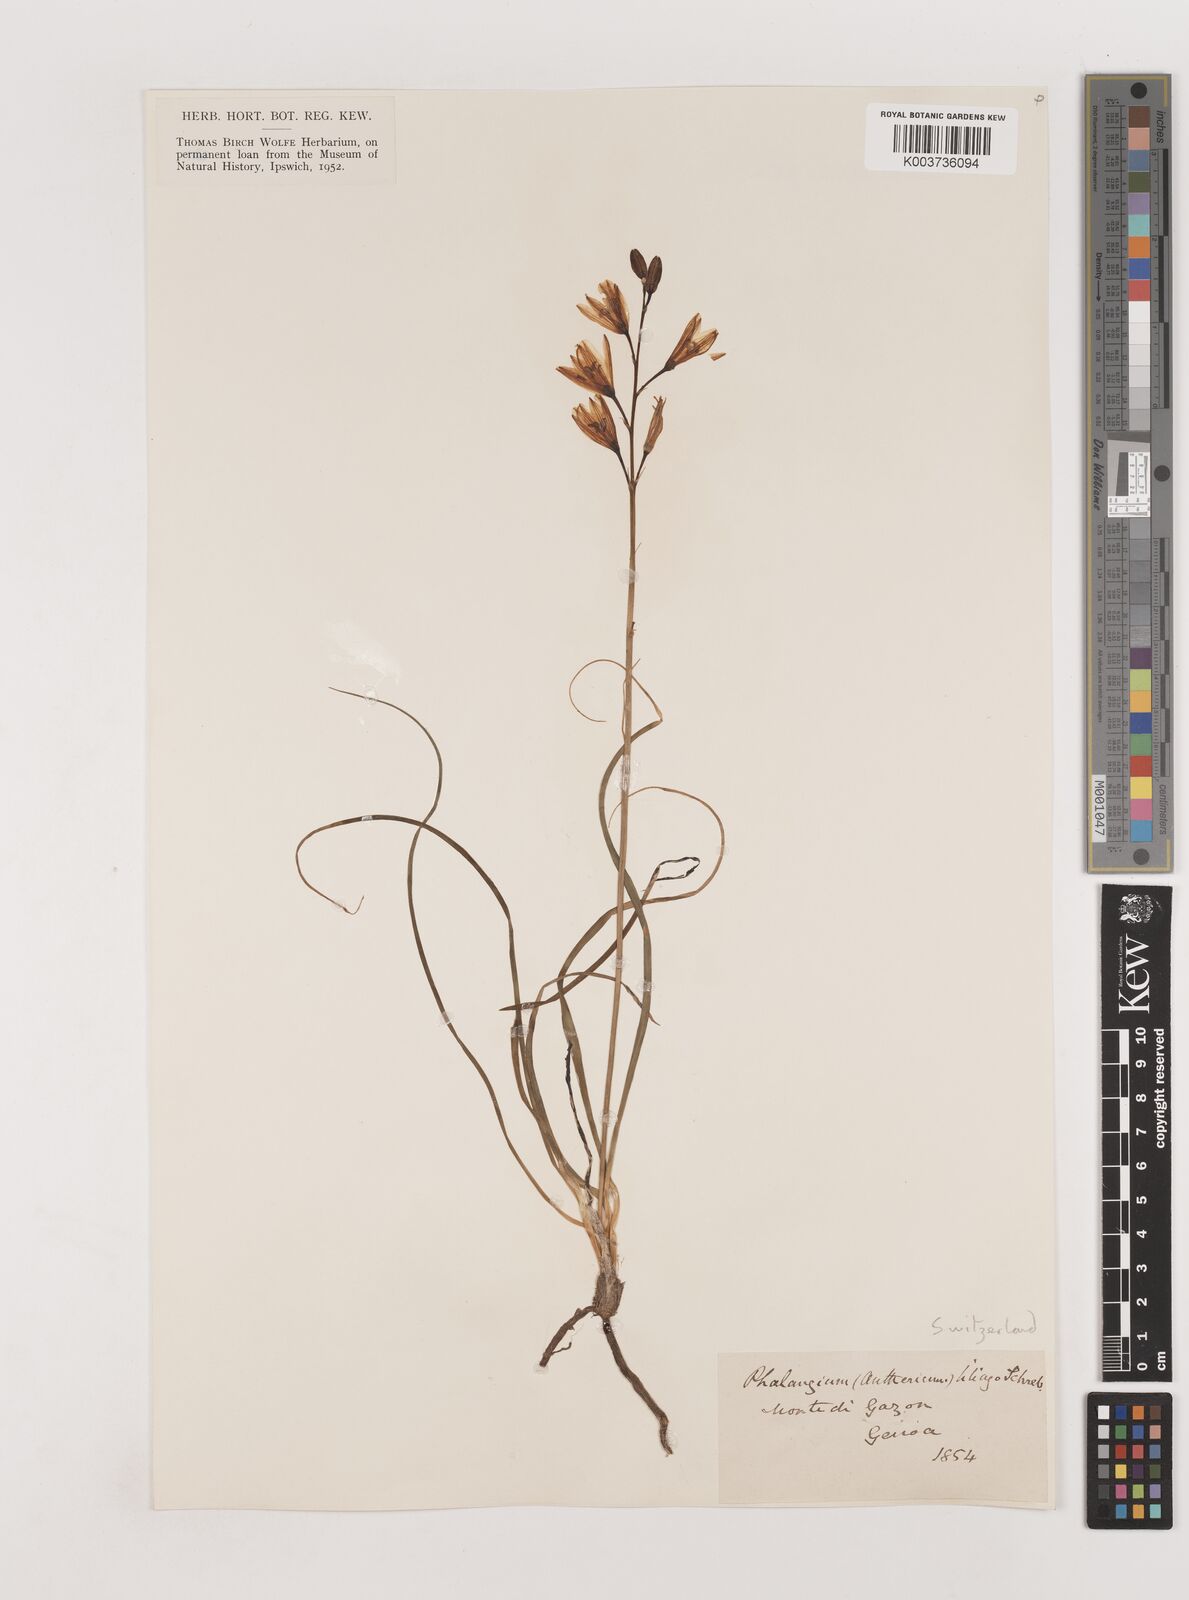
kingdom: Plantae
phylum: Tracheophyta
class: Liliopsida
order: Asparagales
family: Asparagaceae
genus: Anthericum
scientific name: Anthericum liliago
